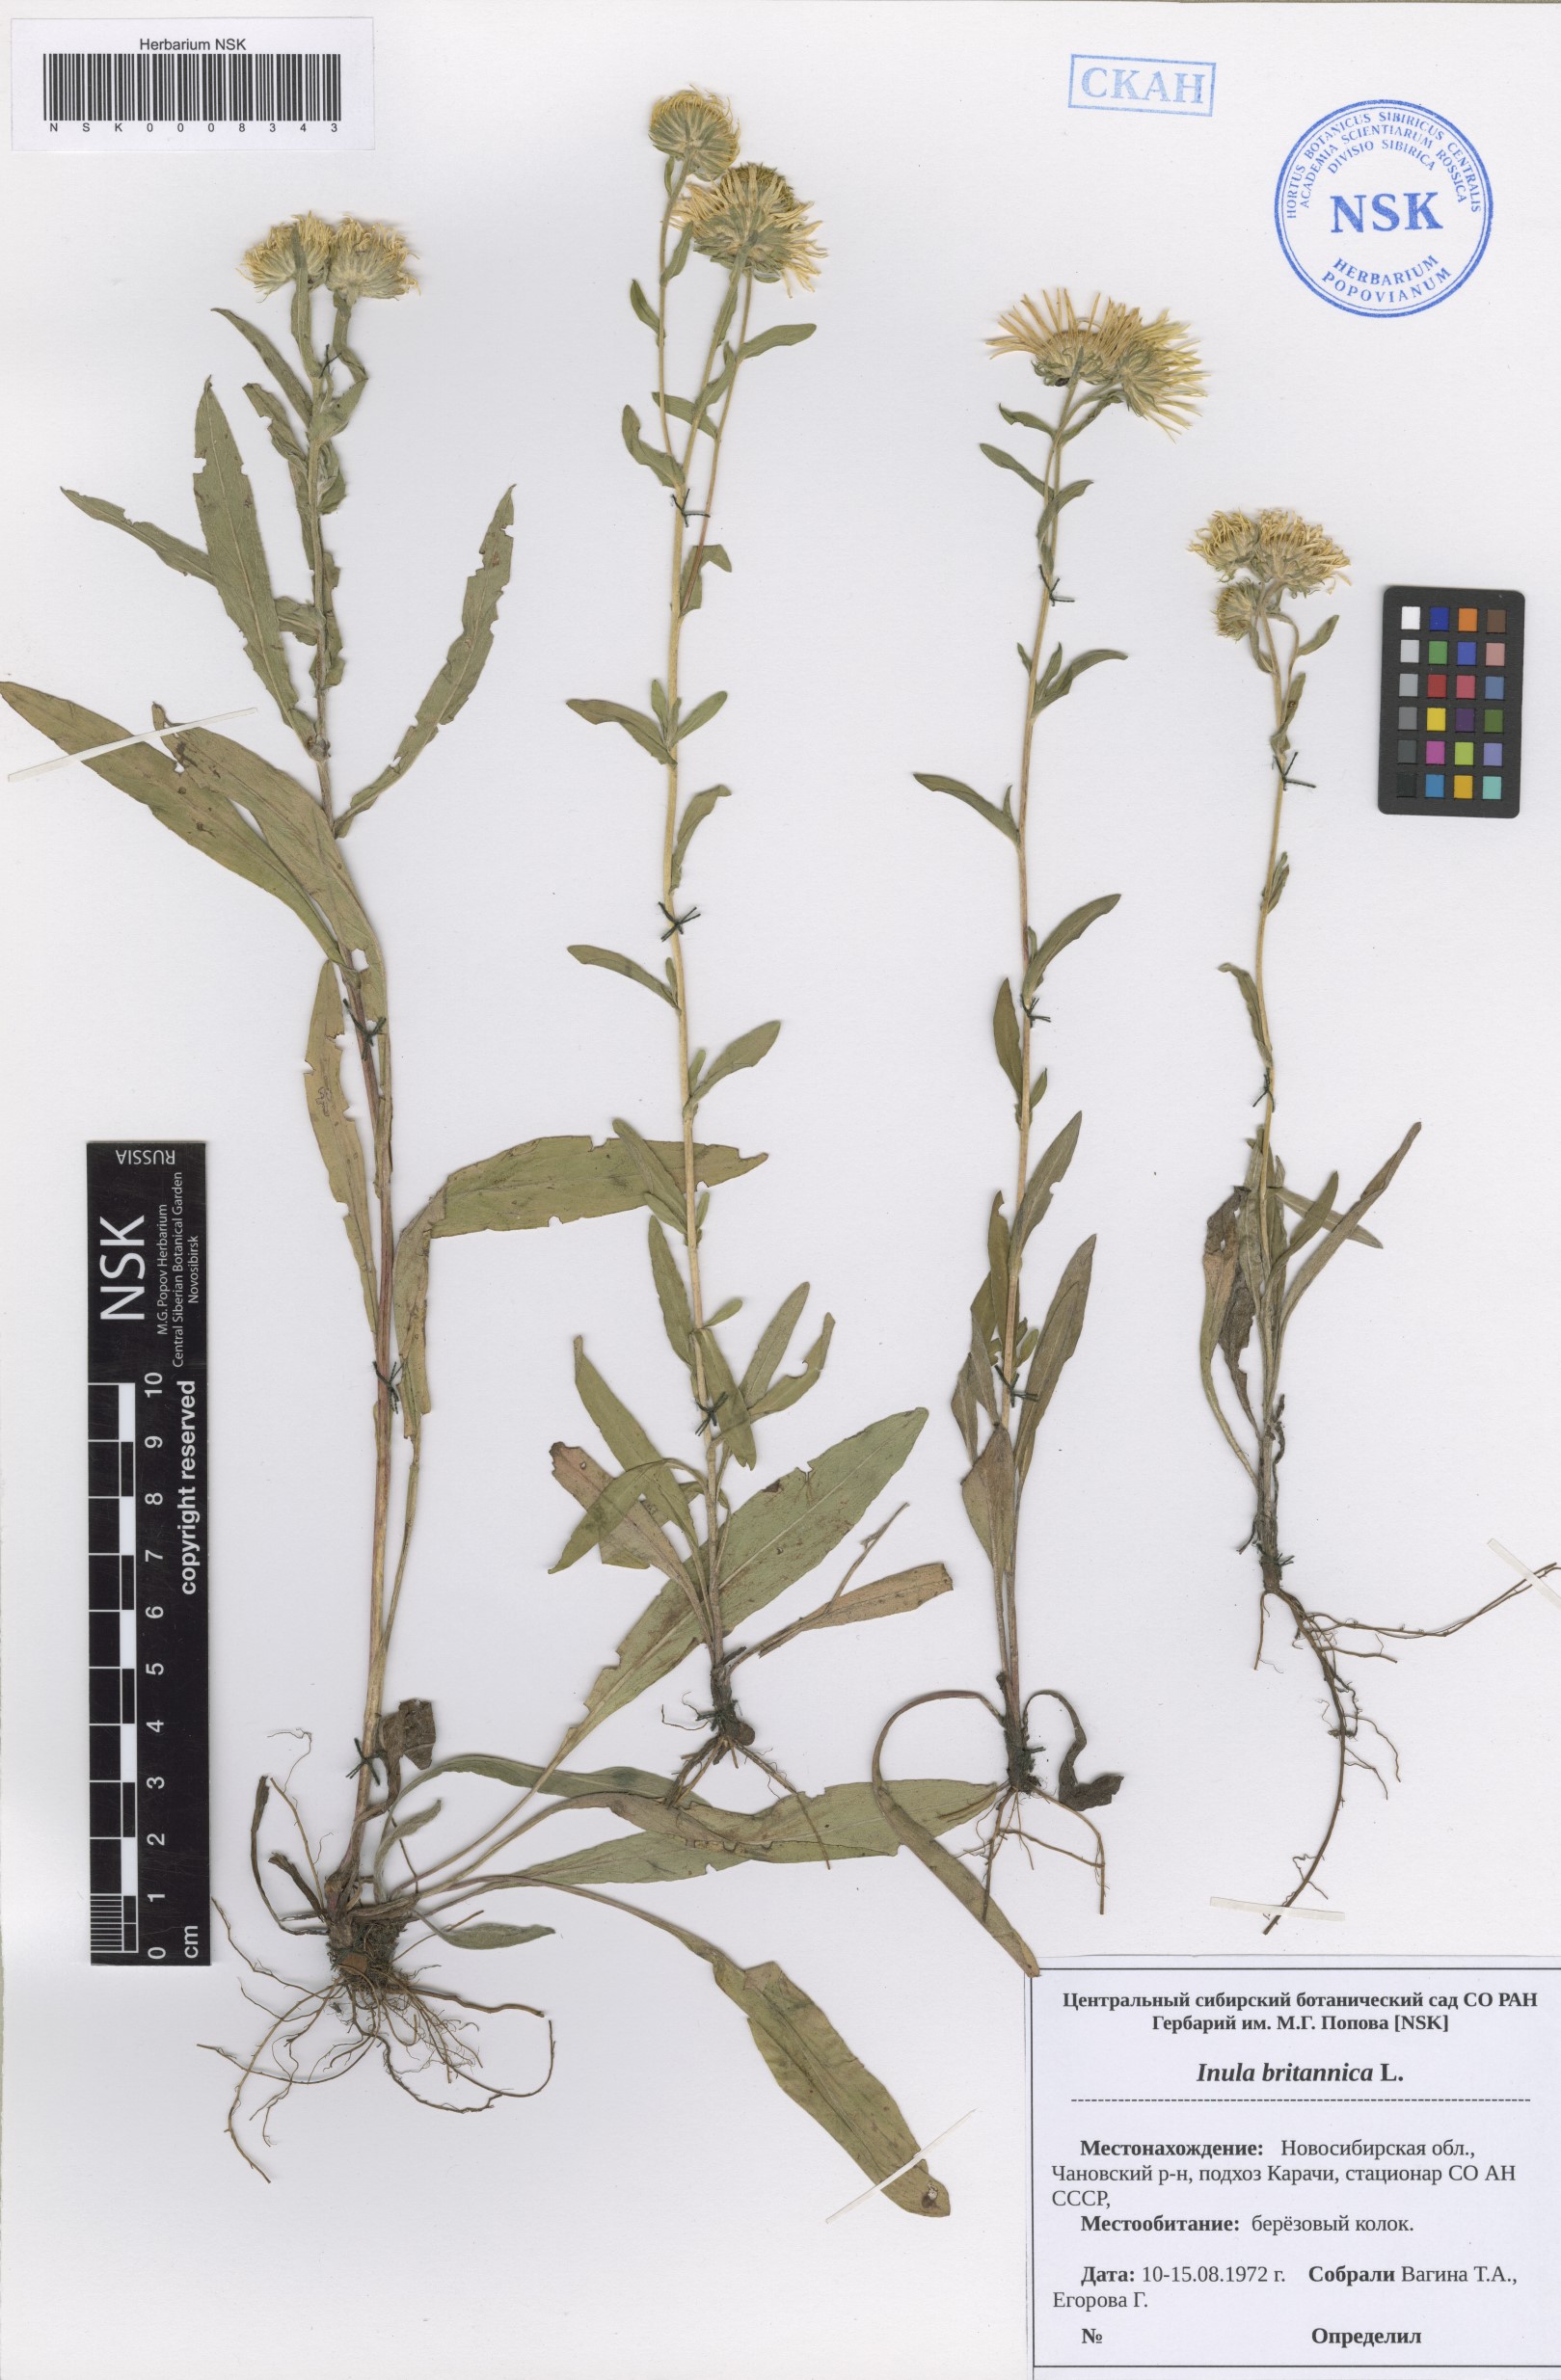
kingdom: Plantae
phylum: Tracheophyta
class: Magnoliopsida
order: Asterales
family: Asteraceae
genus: Pentanema
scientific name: Pentanema britannicum
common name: British elecampane
